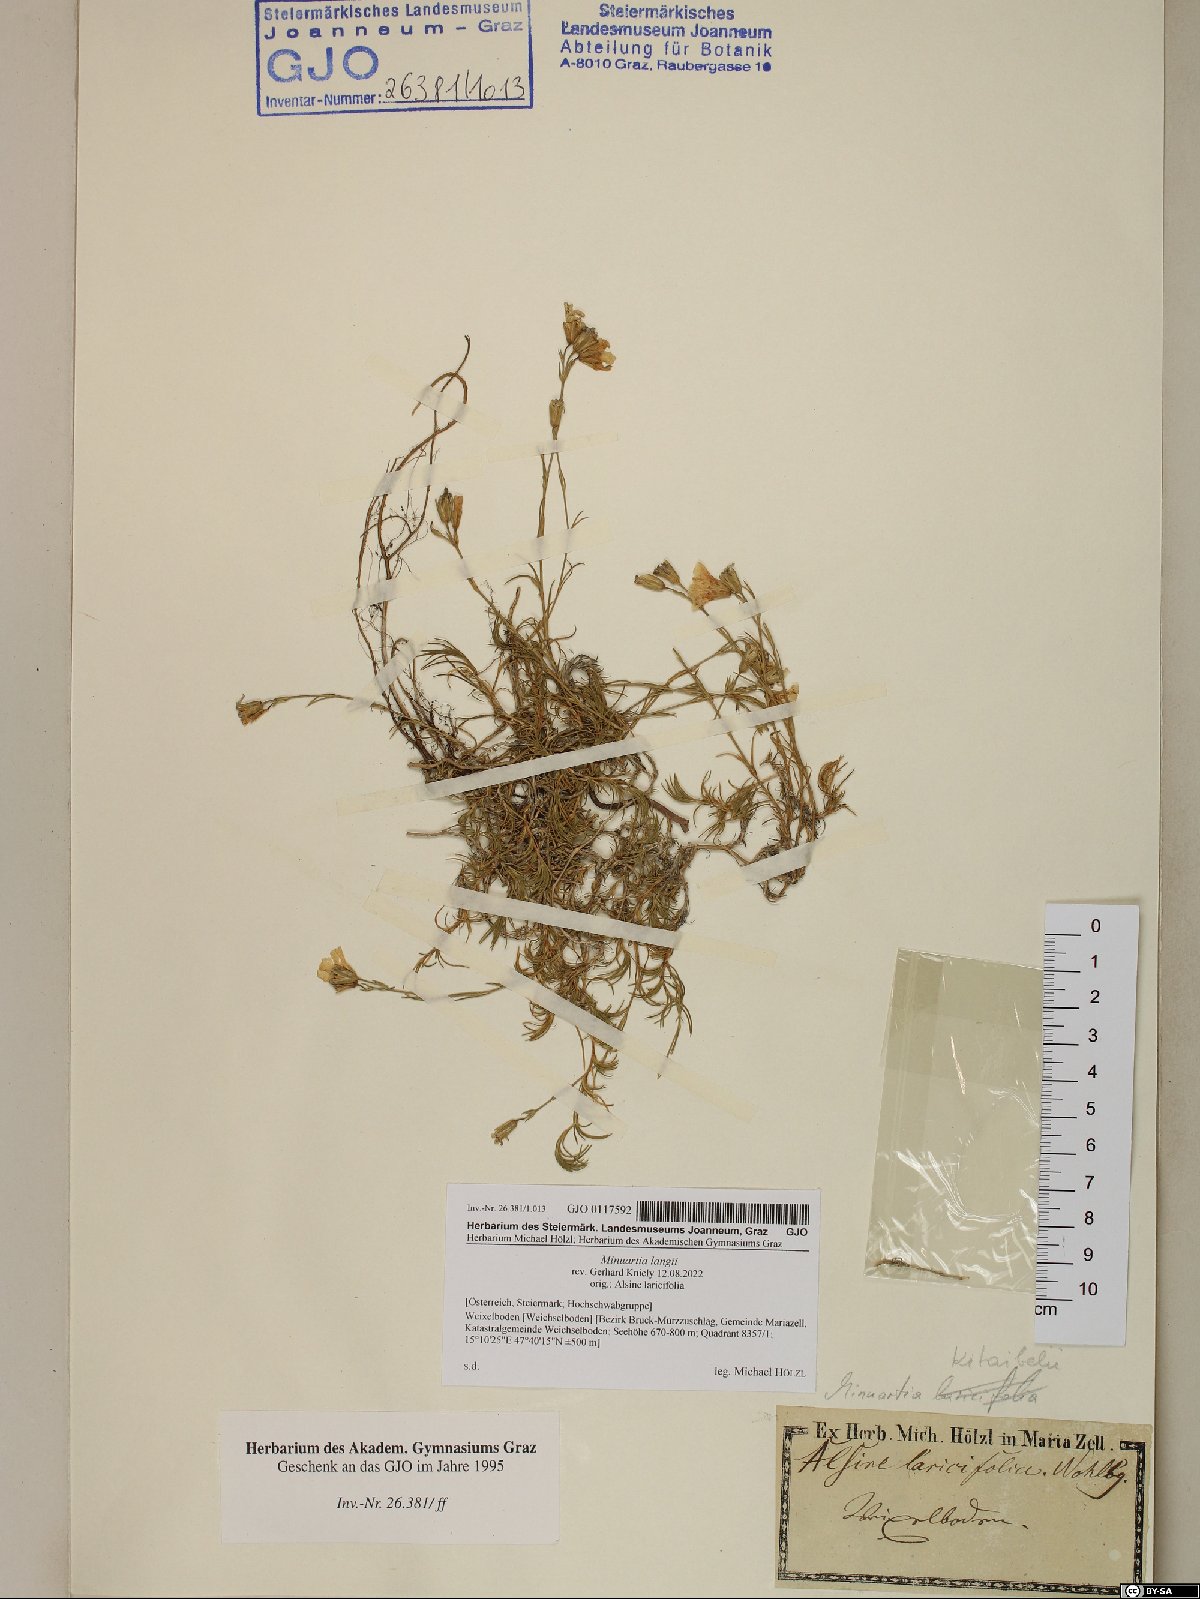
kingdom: Plantae
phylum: Tracheophyta
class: Magnoliopsida
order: Caryophyllales
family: Caryophyllaceae
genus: Cherleria
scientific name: Cherleria langii
